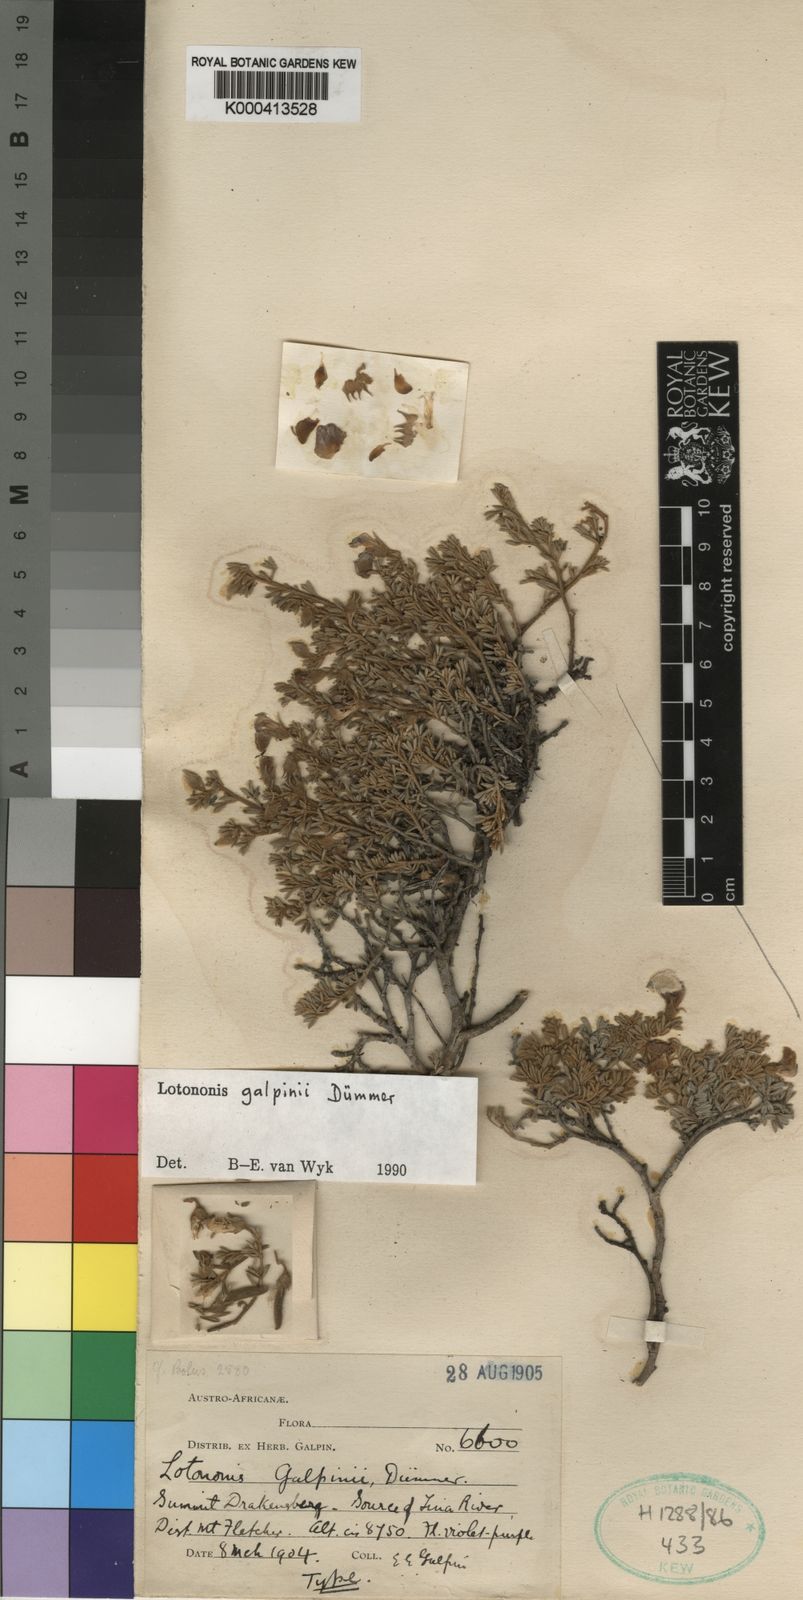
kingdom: Plantae
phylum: Tracheophyta
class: Magnoliopsida
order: Fabales
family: Fabaceae
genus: Lotononis
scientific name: Lotononis galpinii
